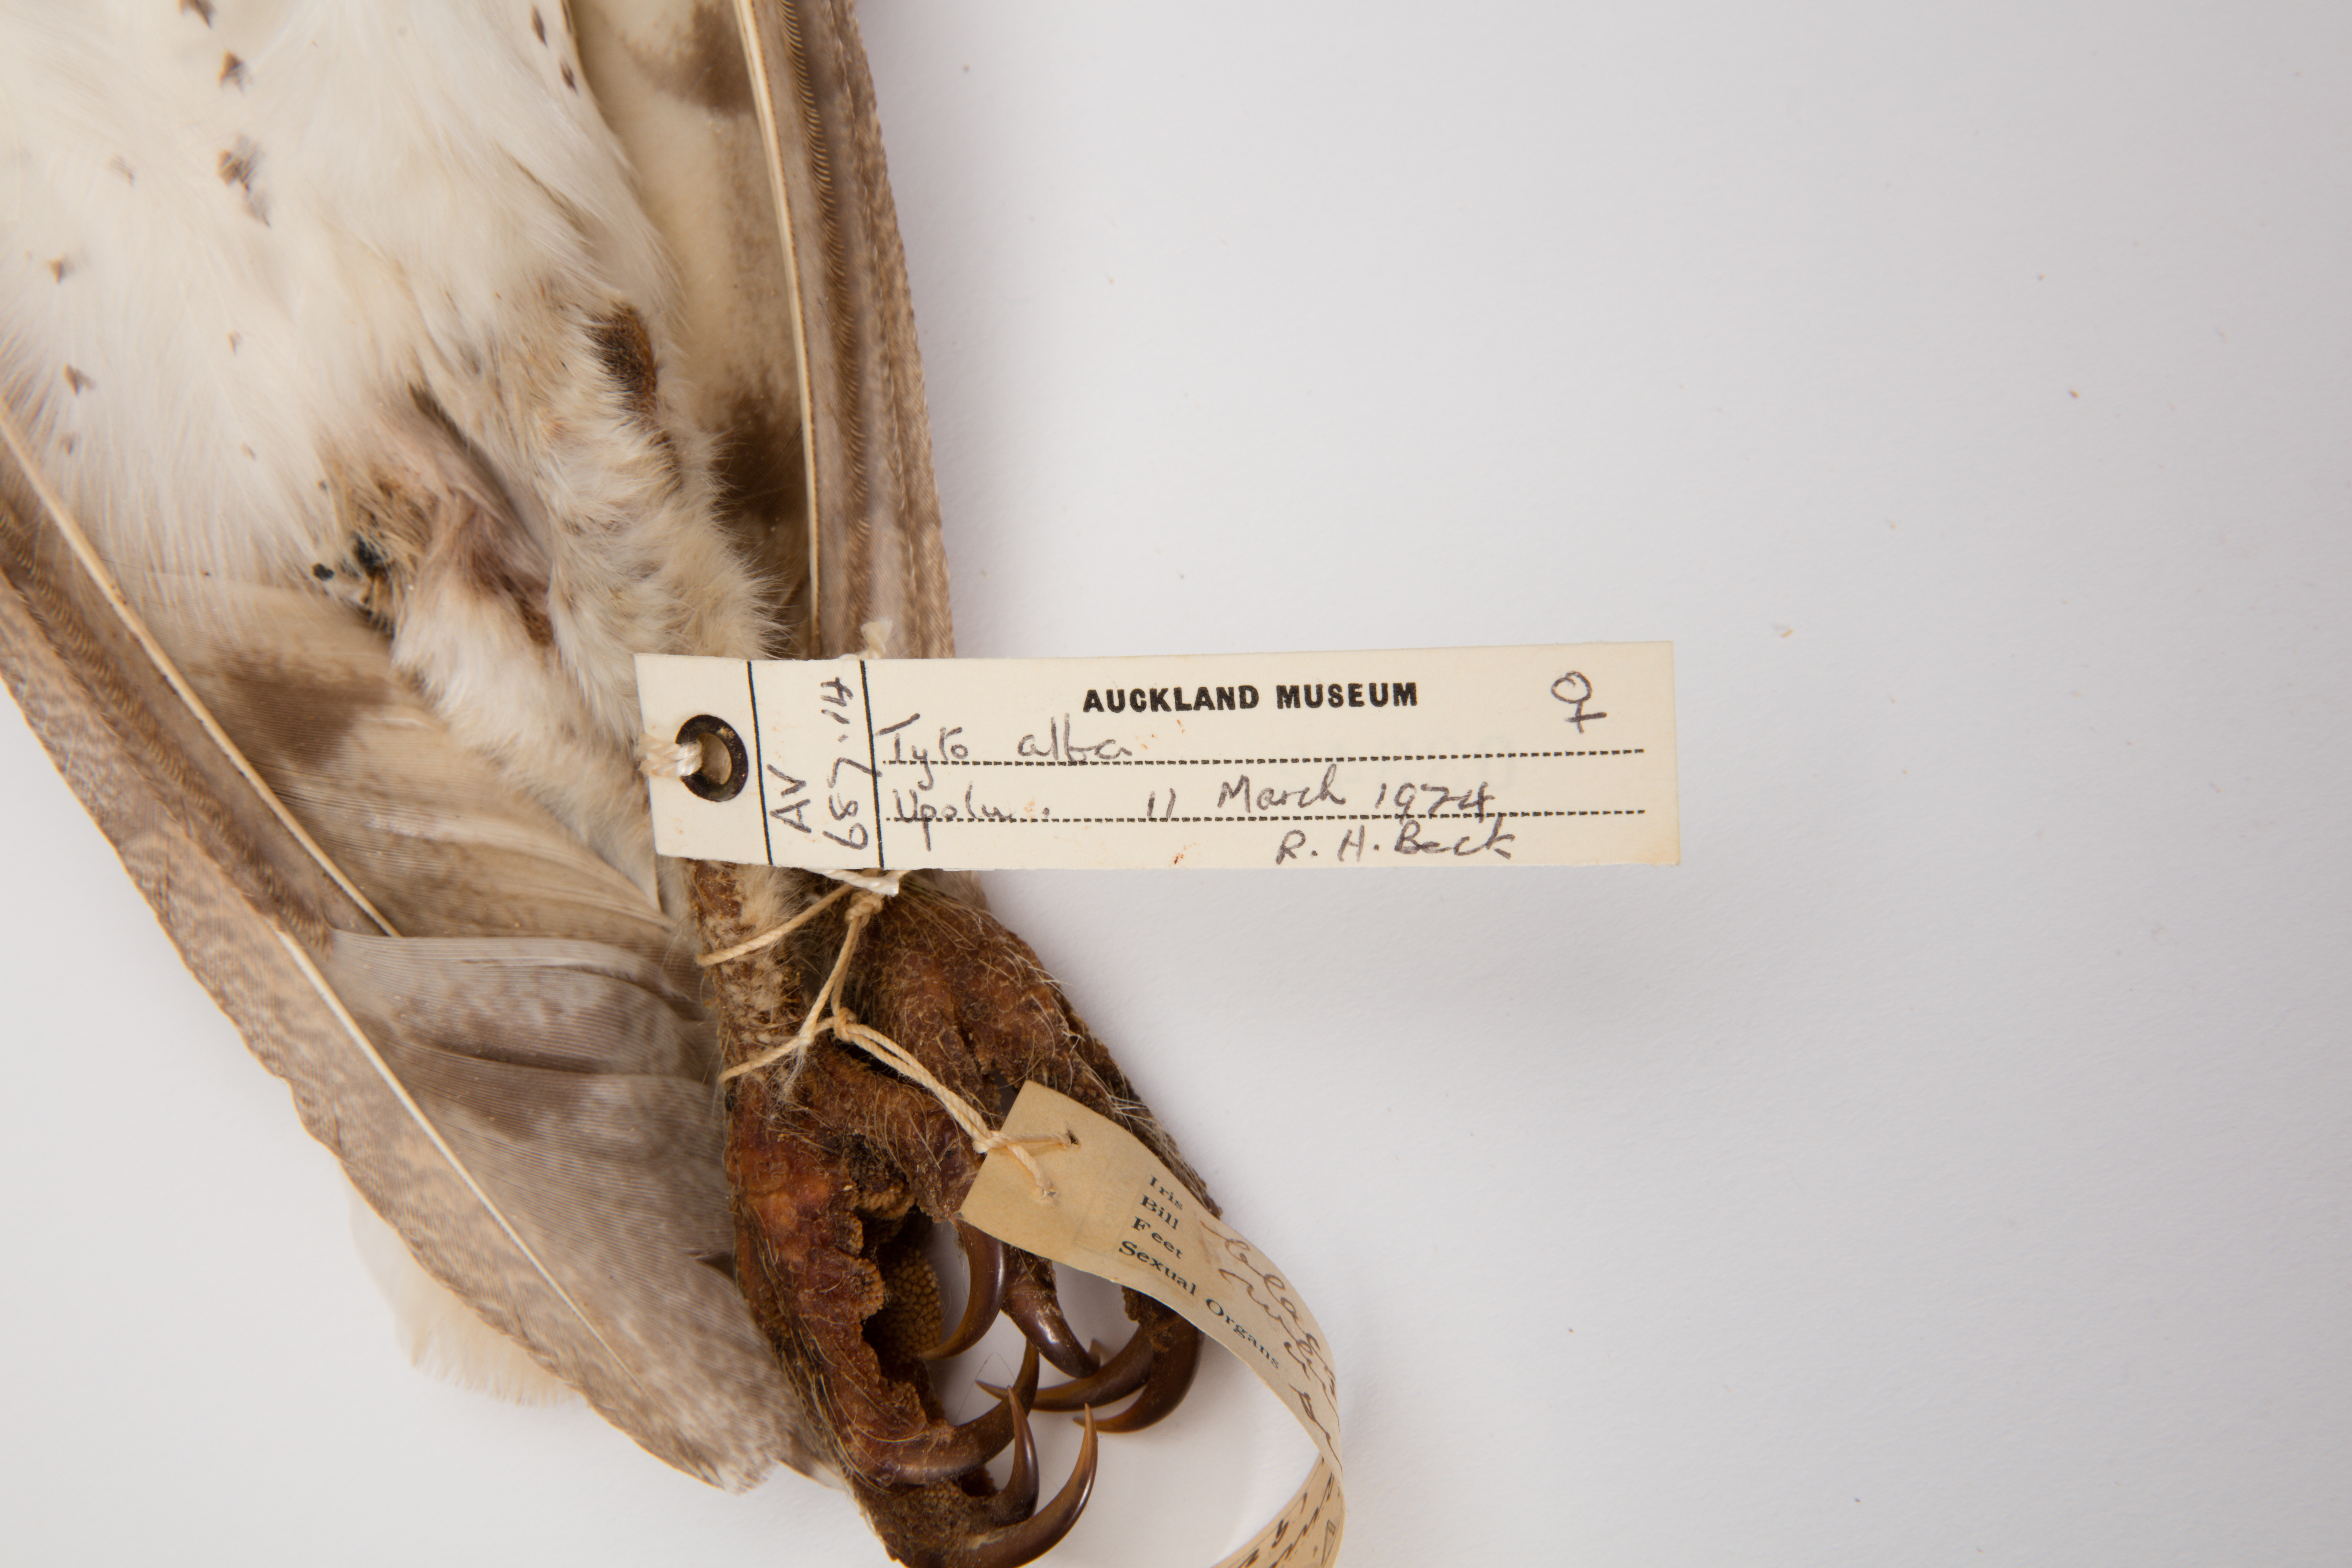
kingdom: Animalia
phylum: Chordata
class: Aves
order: Strigiformes
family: Tytonidae
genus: Tyto
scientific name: Tyto alba
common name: Barn owl
